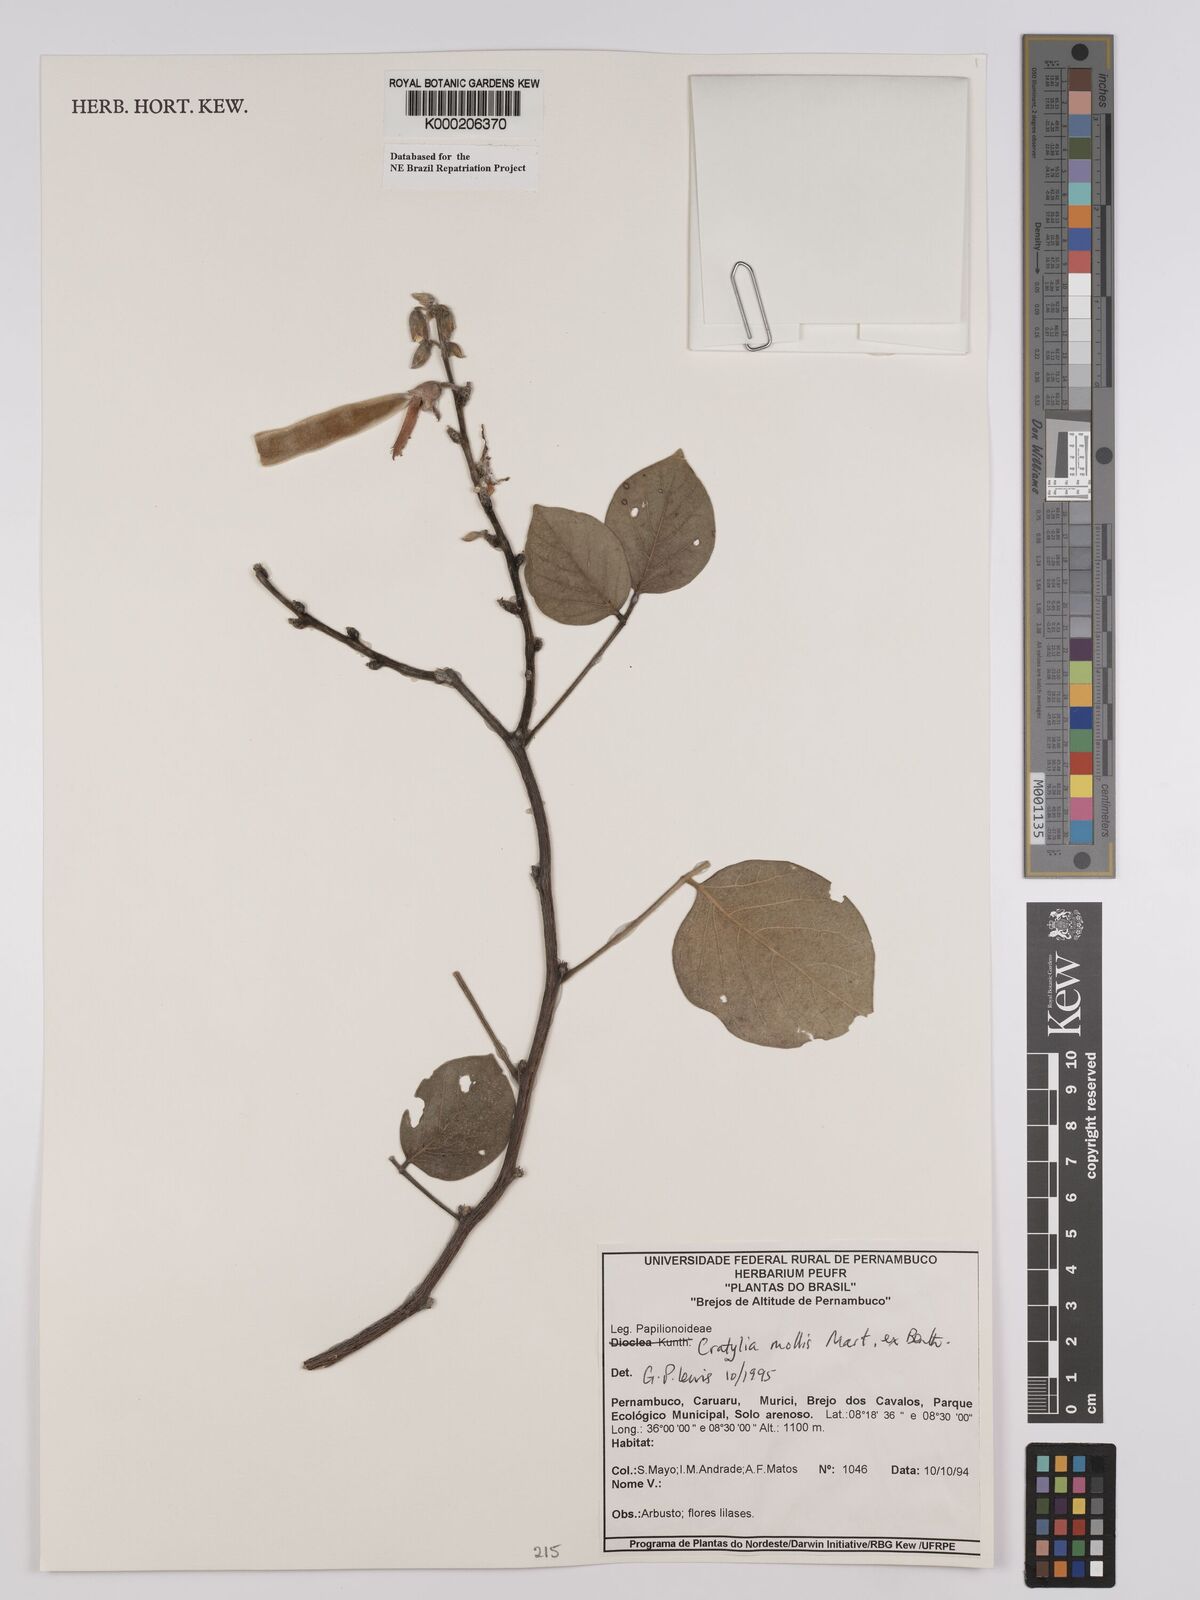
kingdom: Plantae
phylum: Tracheophyta
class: Magnoliopsida
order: Fabales
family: Fabaceae
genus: Cratylia
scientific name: Cratylia mollis
